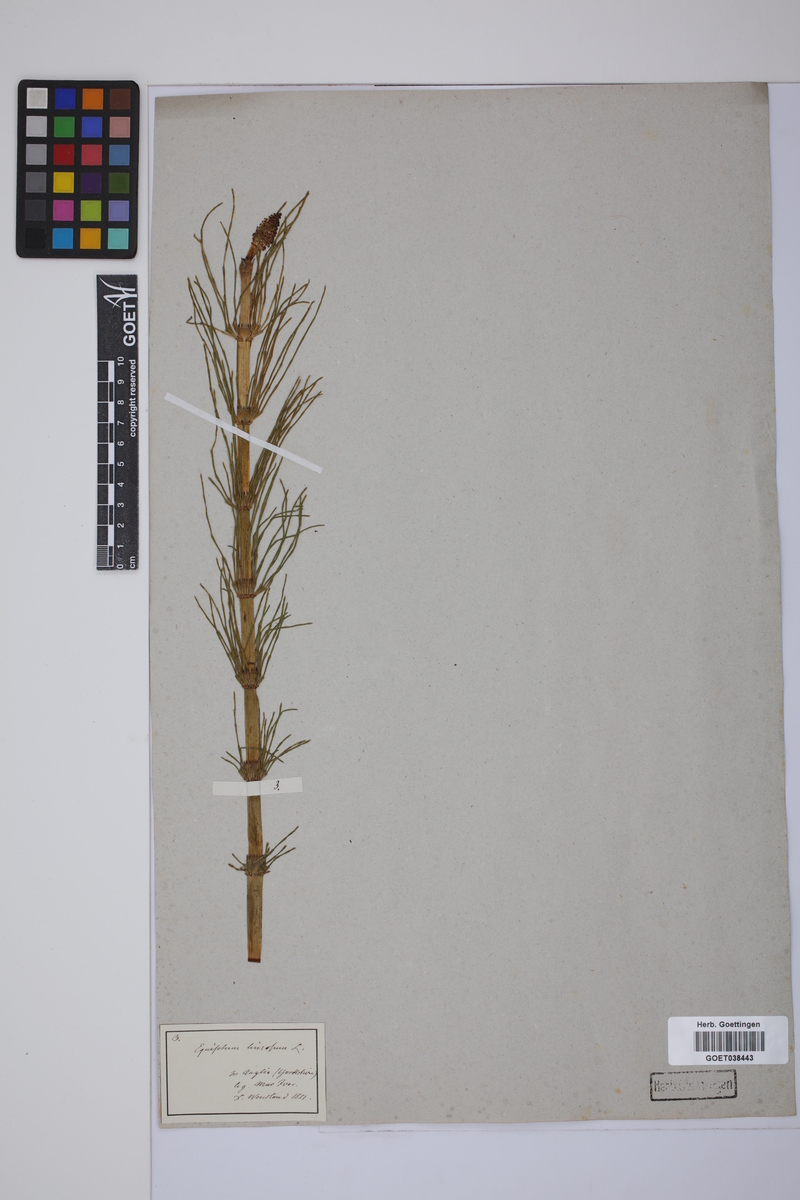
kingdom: Plantae
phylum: Tracheophyta
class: Polypodiopsida
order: Equisetales
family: Equisetaceae
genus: Equisetum
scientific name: Equisetum fluviatile
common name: Water horsetail
